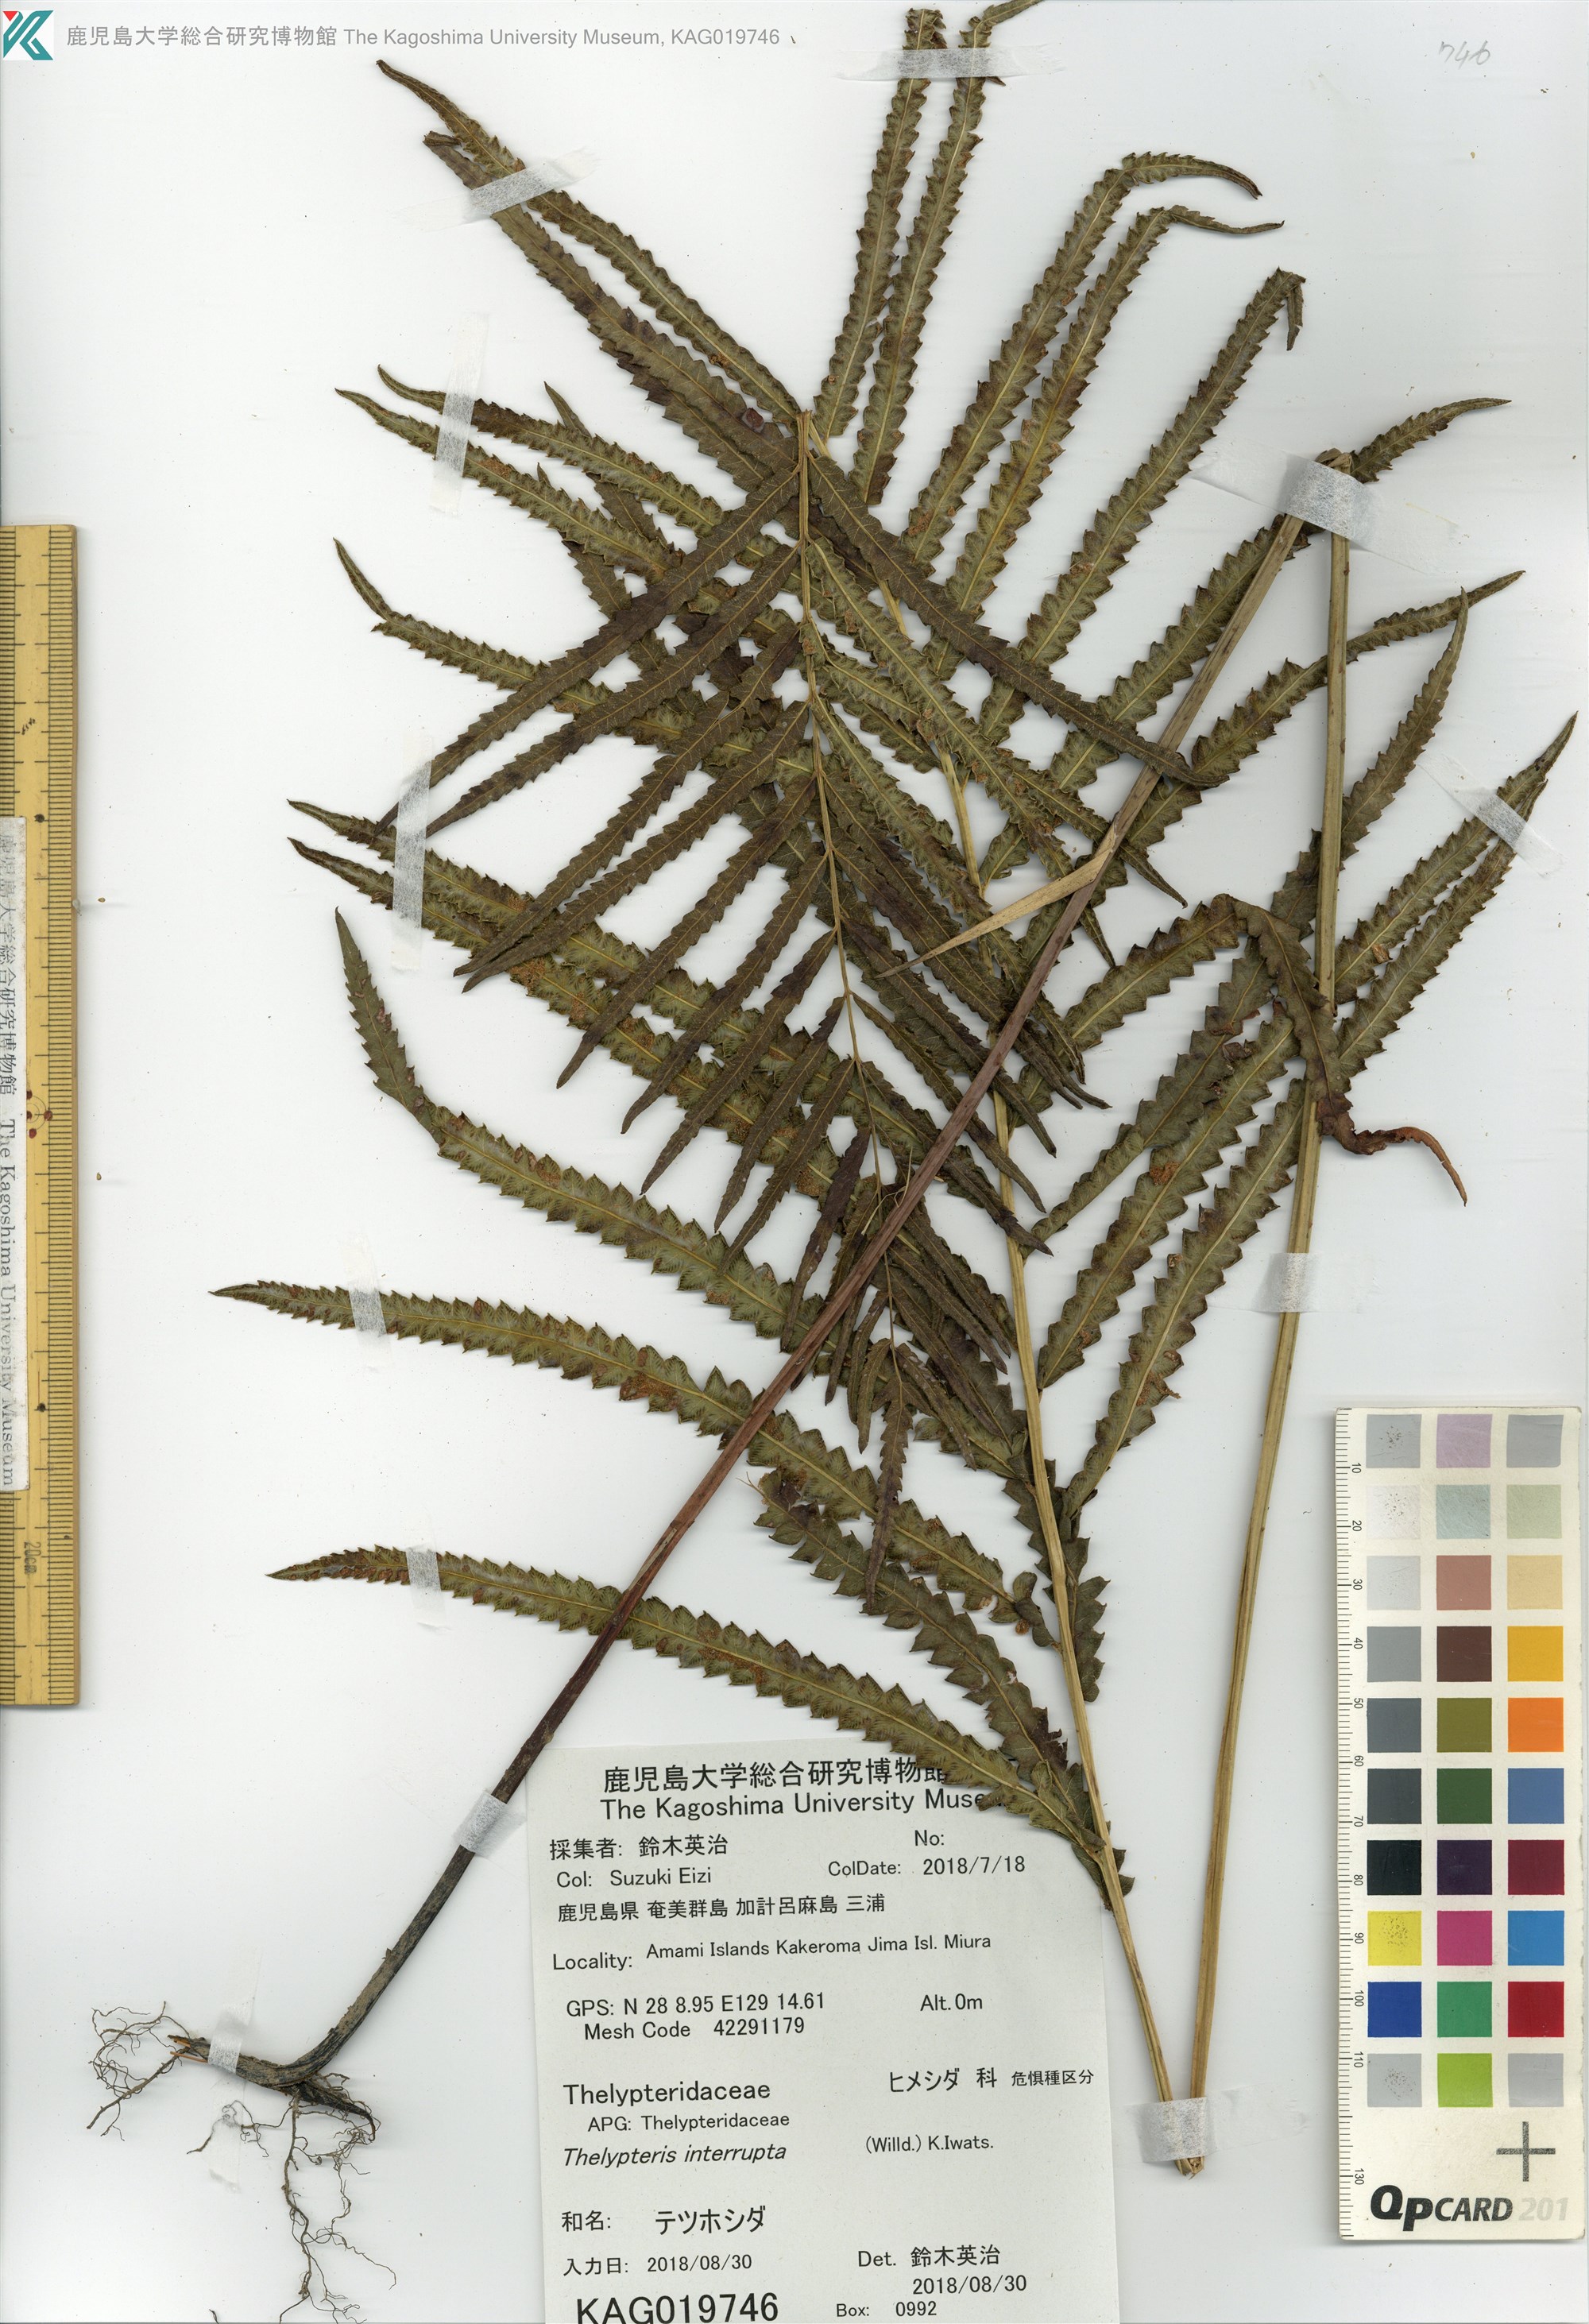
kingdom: Plantae
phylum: Tracheophyta
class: Polypodiopsida
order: Polypodiales
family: Thelypteridaceae
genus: Cyclosorus
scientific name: Cyclosorus interruptus
